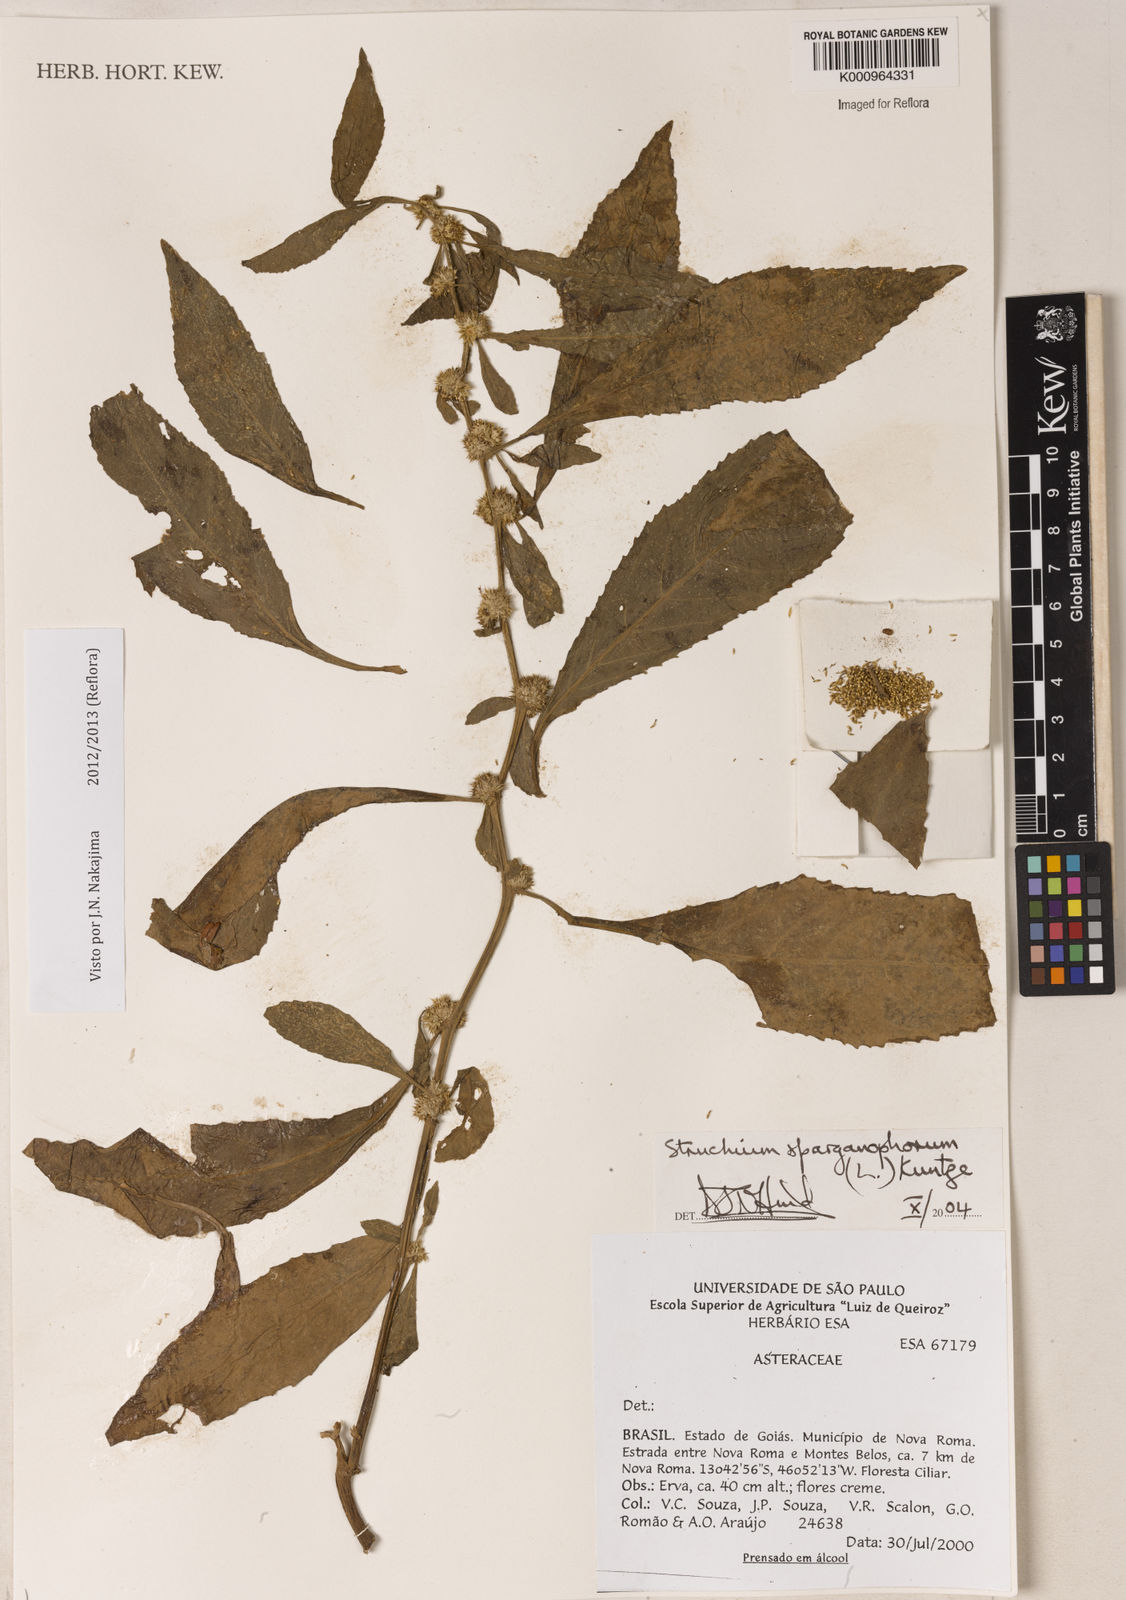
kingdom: Plantae
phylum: Tracheophyta
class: Magnoliopsida
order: Asterales
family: Asteraceae
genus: Struchium
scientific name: Struchium sparganophorum
